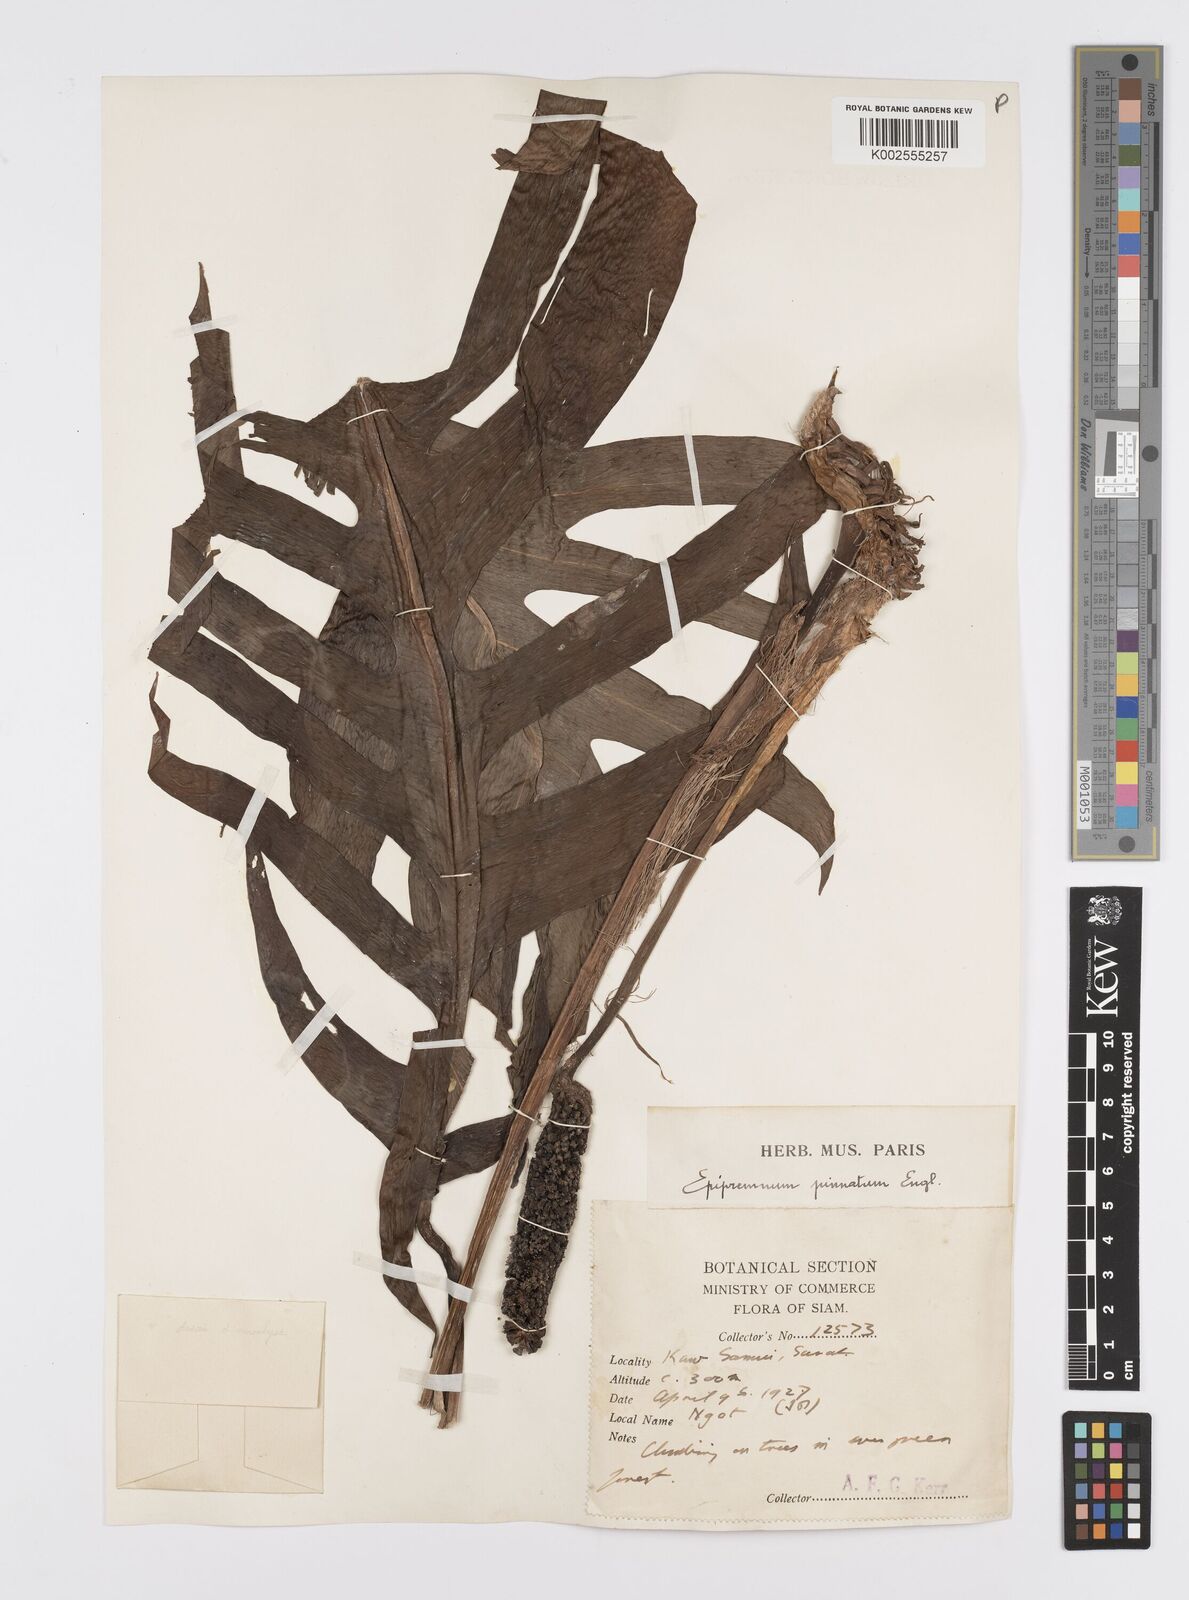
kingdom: Plantae
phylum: Tracheophyta
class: Liliopsida
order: Alismatales
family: Araceae
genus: Epipremnum
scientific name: Epipremnum pinnatum
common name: Centipede tongavine
